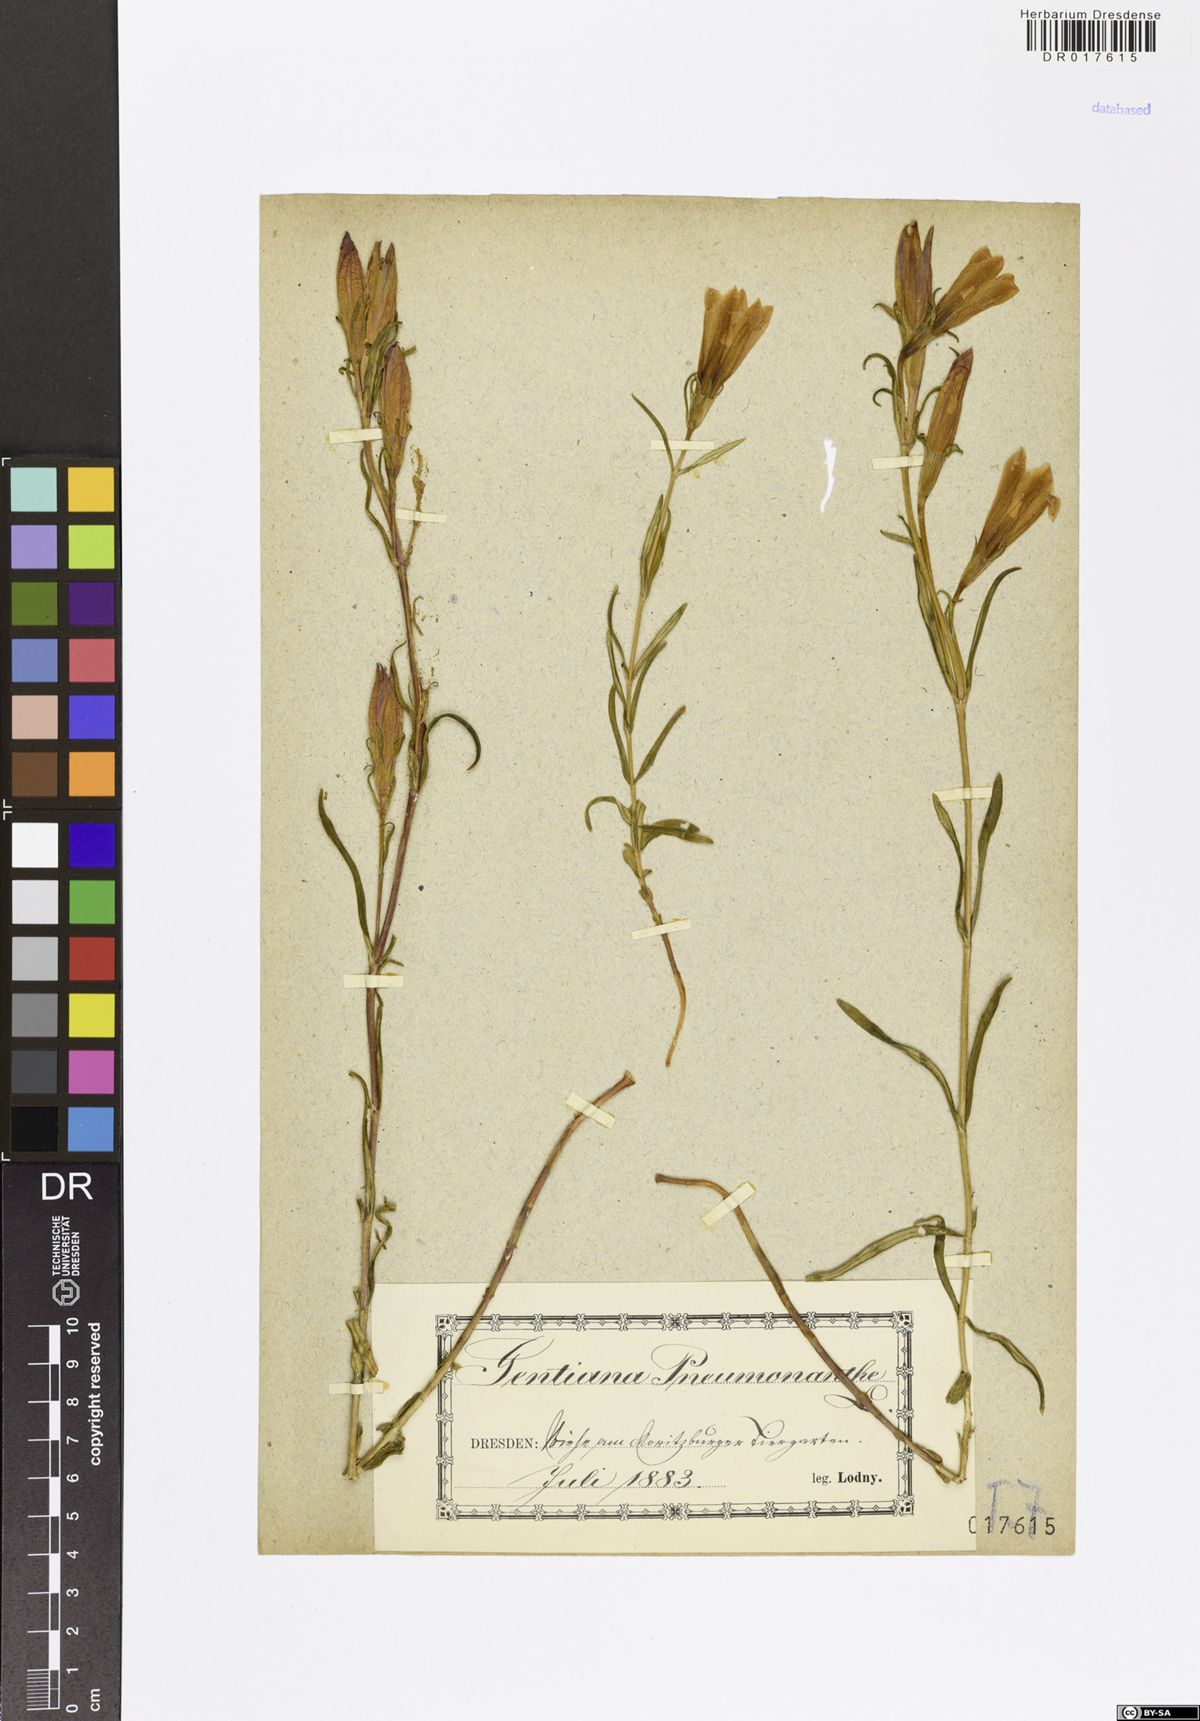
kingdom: Plantae
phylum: Tracheophyta
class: Magnoliopsida
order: Gentianales
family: Gentianaceae
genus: Gentiana
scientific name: Gentiana pneumonanthe
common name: Marsh gentian
